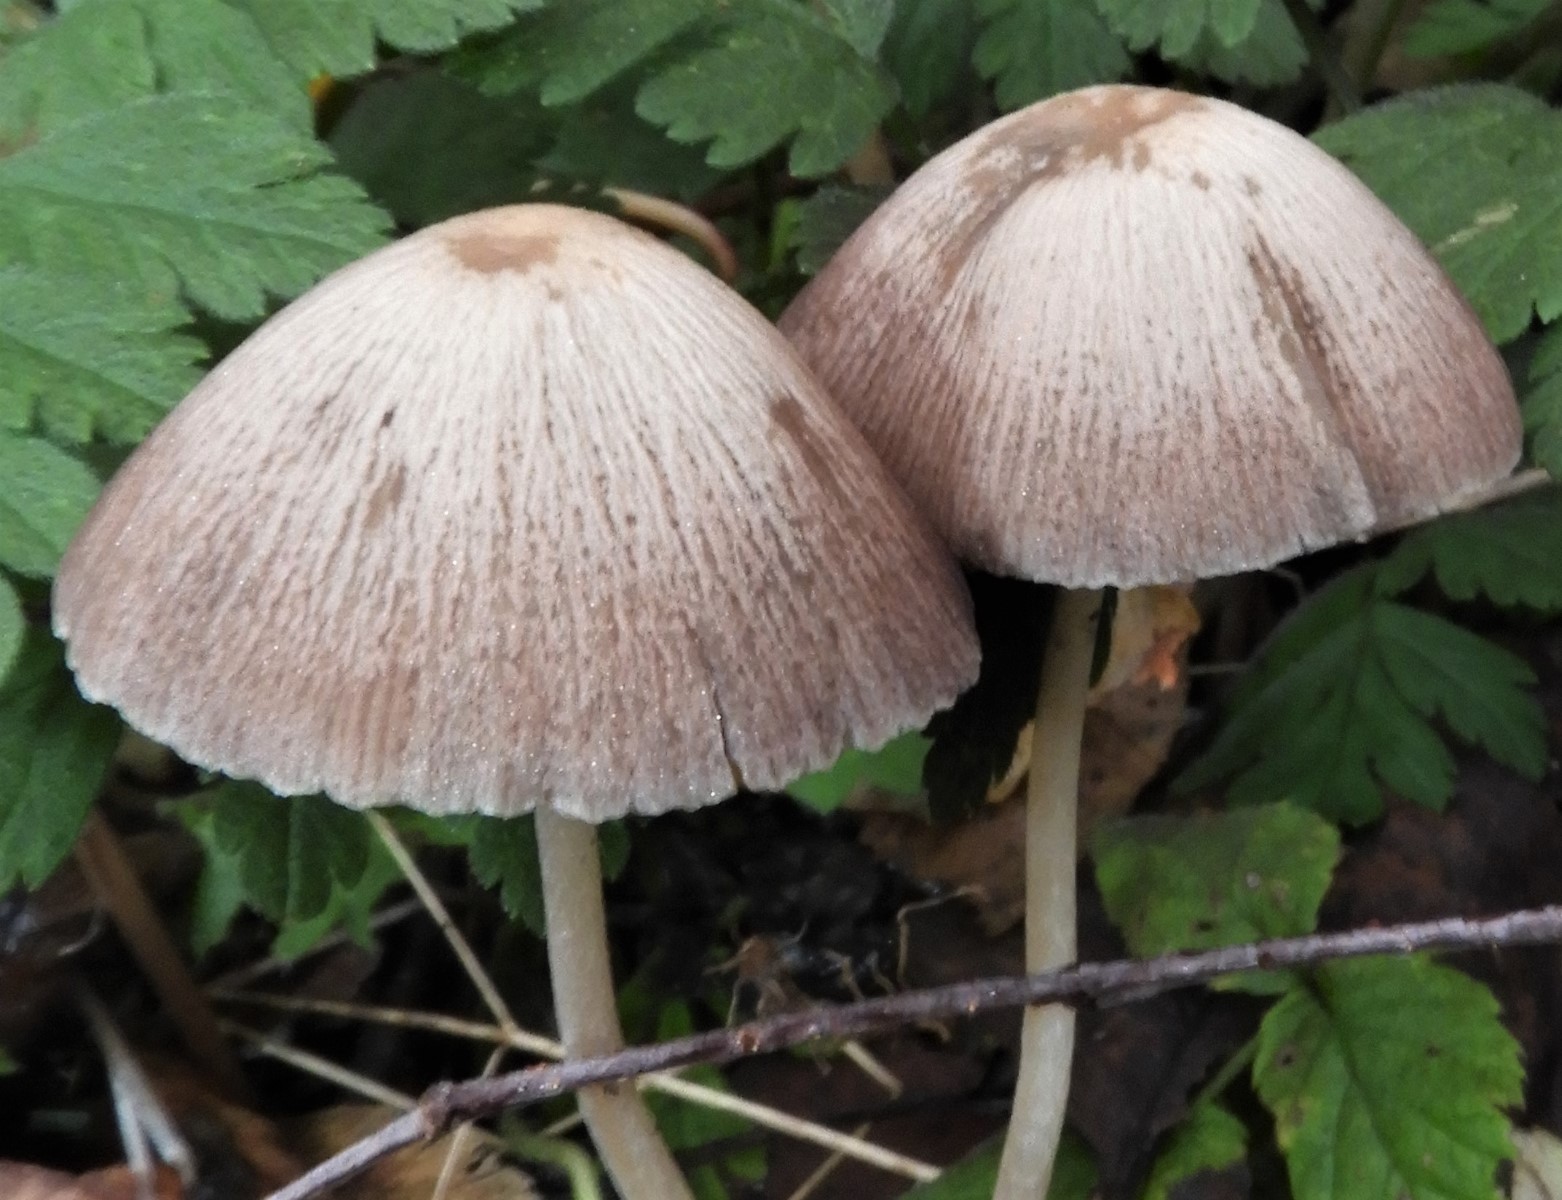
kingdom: Fungi
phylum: Basidiomycota
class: Agaricomycetes
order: Agaricales
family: Psathyrellaceae
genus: Psathyrella
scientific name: Psathyrella
